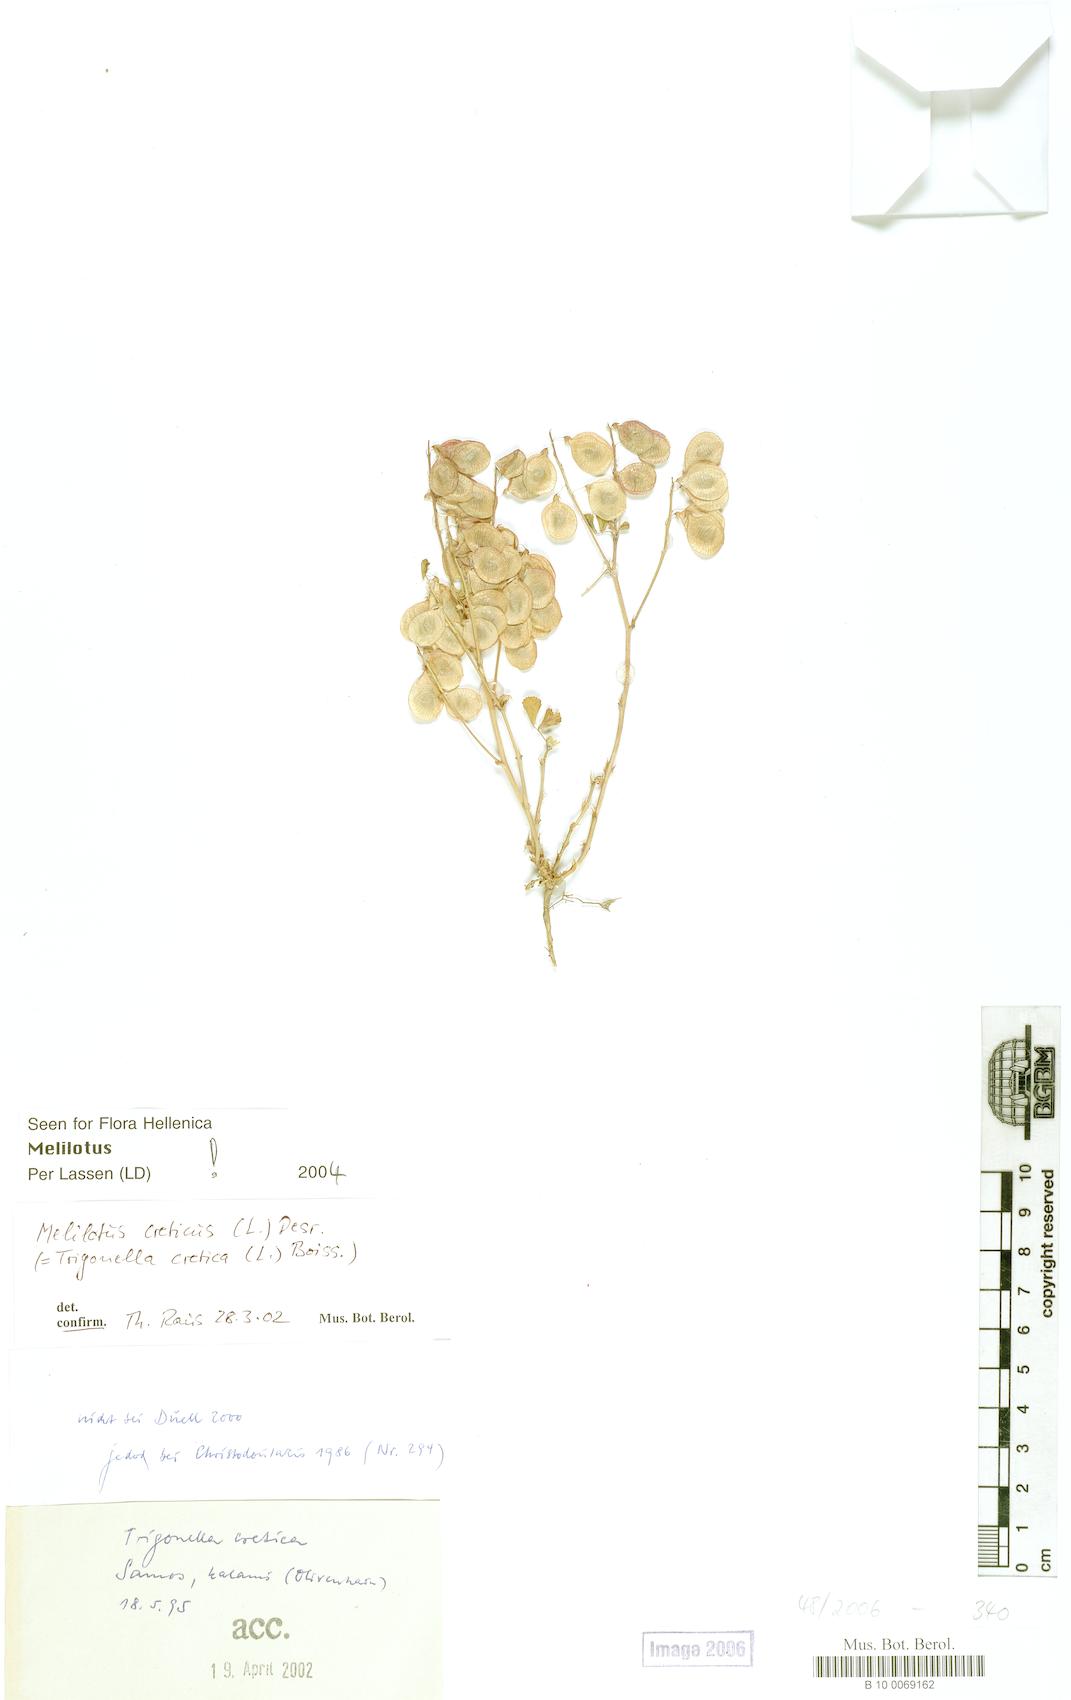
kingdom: Plantae
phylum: Tracheophyta
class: Magnoliopsida
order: Fabales
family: Fabaceae
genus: Trigonella
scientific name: Trigonella cretica
